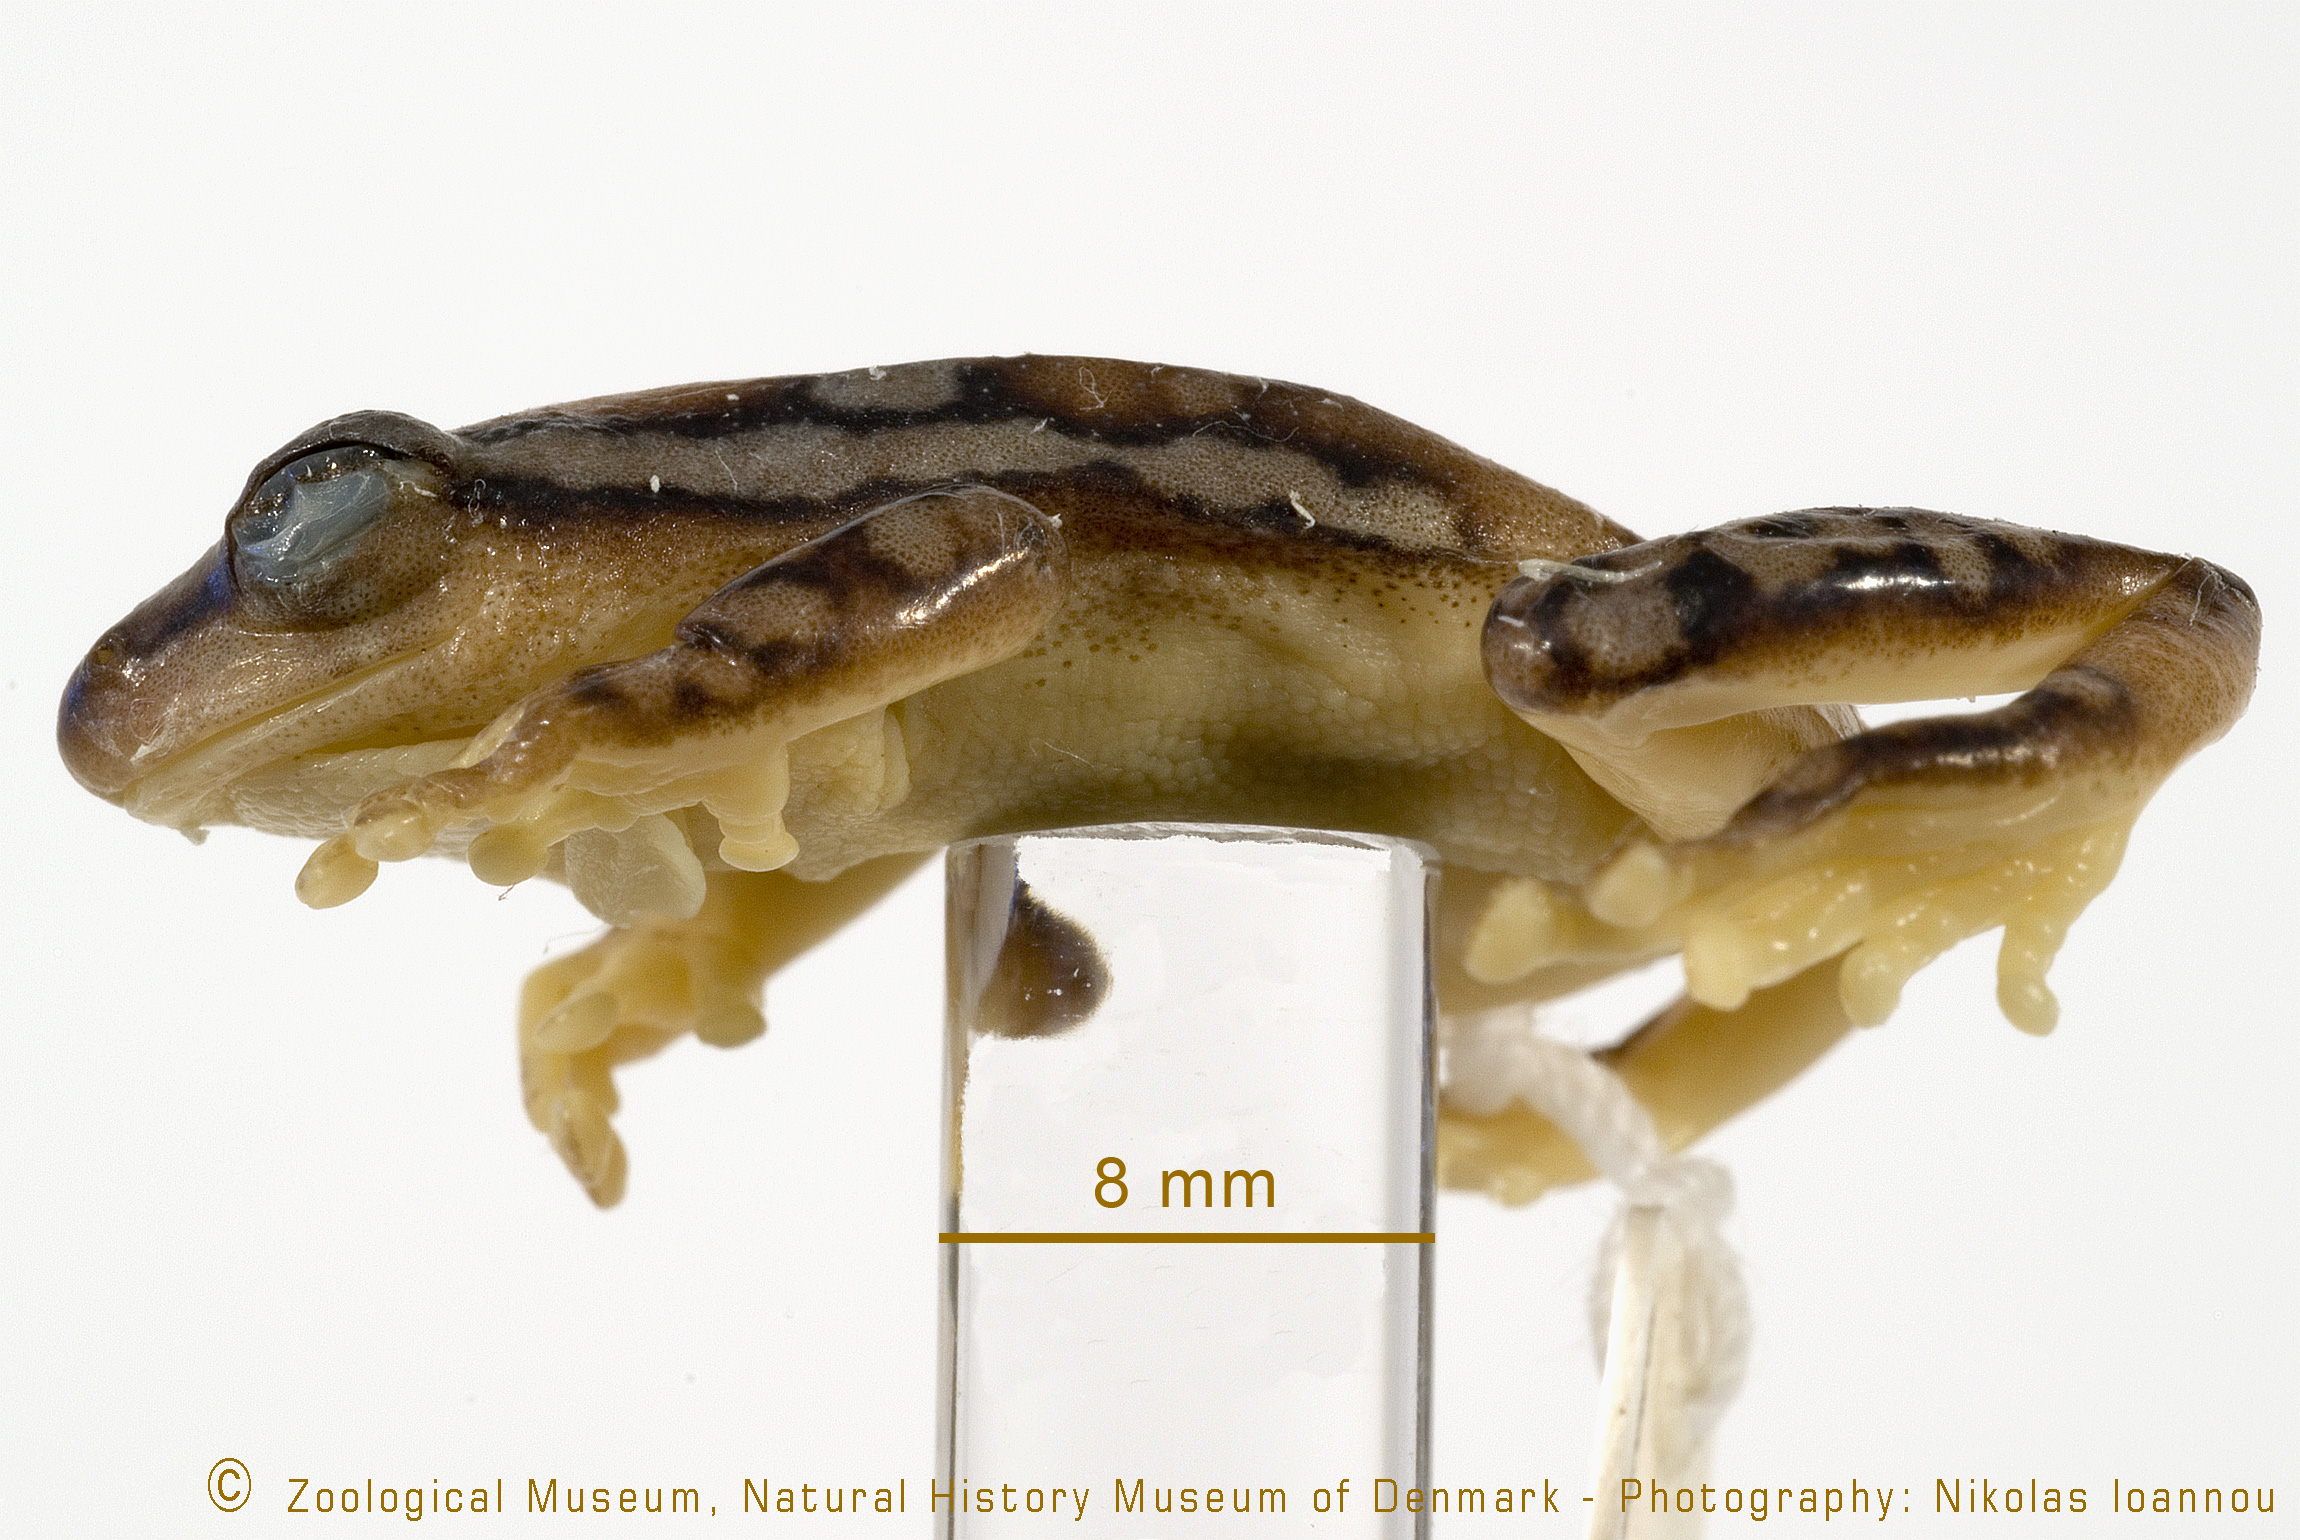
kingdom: Animalia
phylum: Chordata
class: Amphibia
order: Anura
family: Hyperoliidae
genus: Hyperolius
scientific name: Hyperolius puncticulatus
